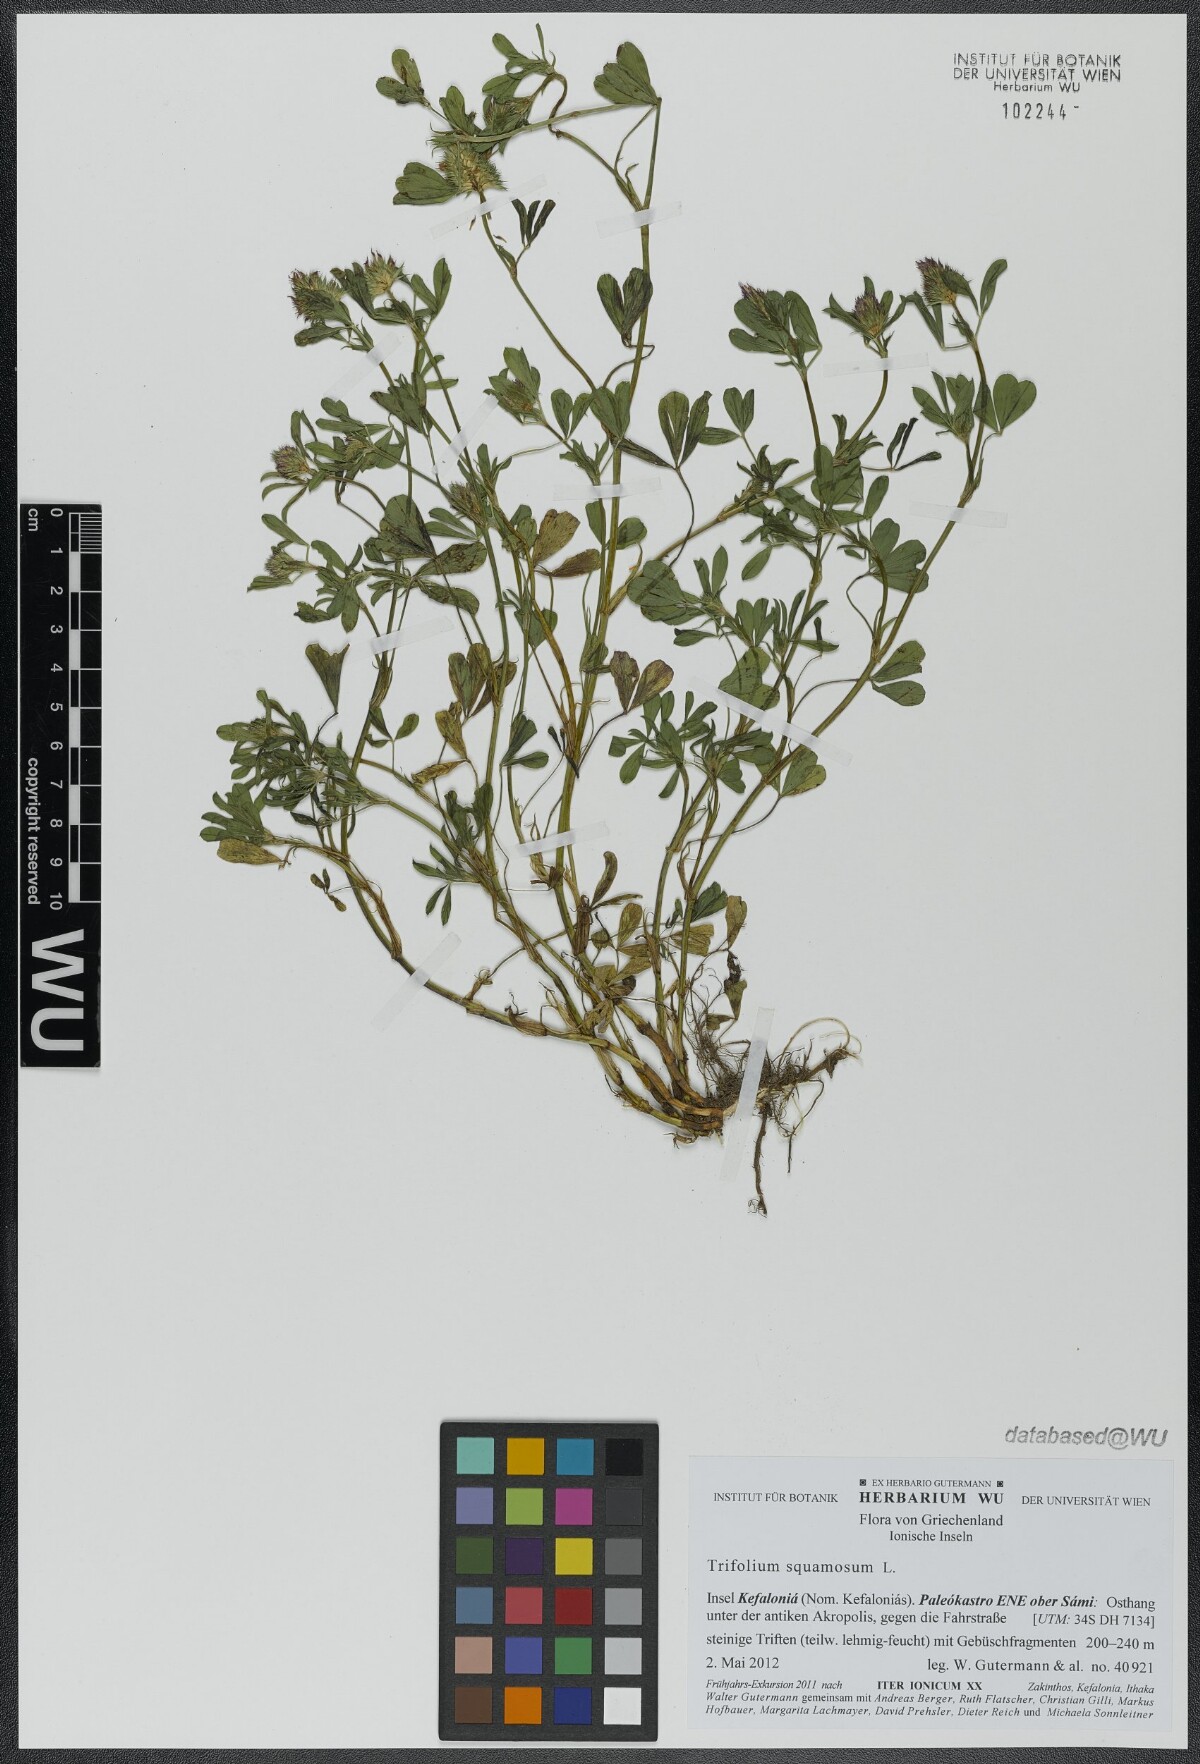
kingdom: Plantae
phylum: Tracheophyta
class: Magnoliopsida
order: Fabales
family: Fabaceae
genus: Trifolium
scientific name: Trifolium squamosum
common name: Sea clover
